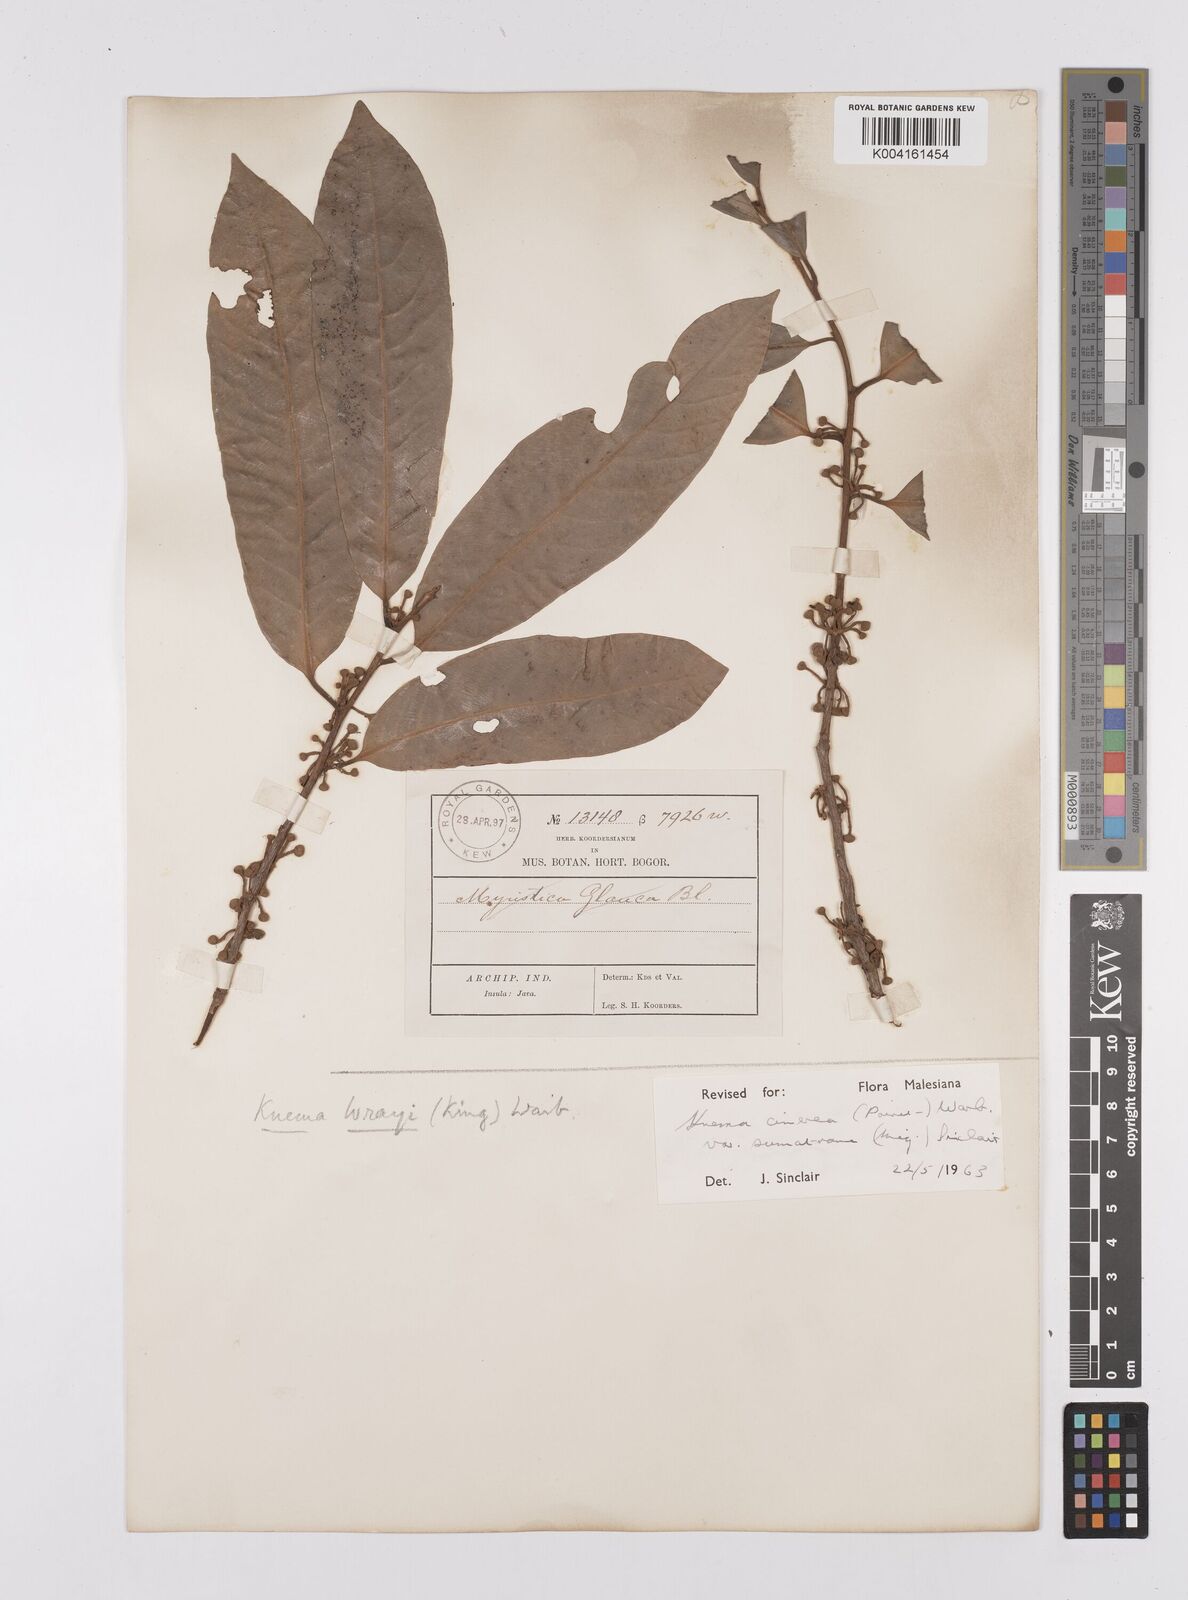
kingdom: Plantae
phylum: Tracheophyta
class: Magnoliopsida
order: Magnoliales
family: Myristicaceae
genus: Knema
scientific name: Knema
